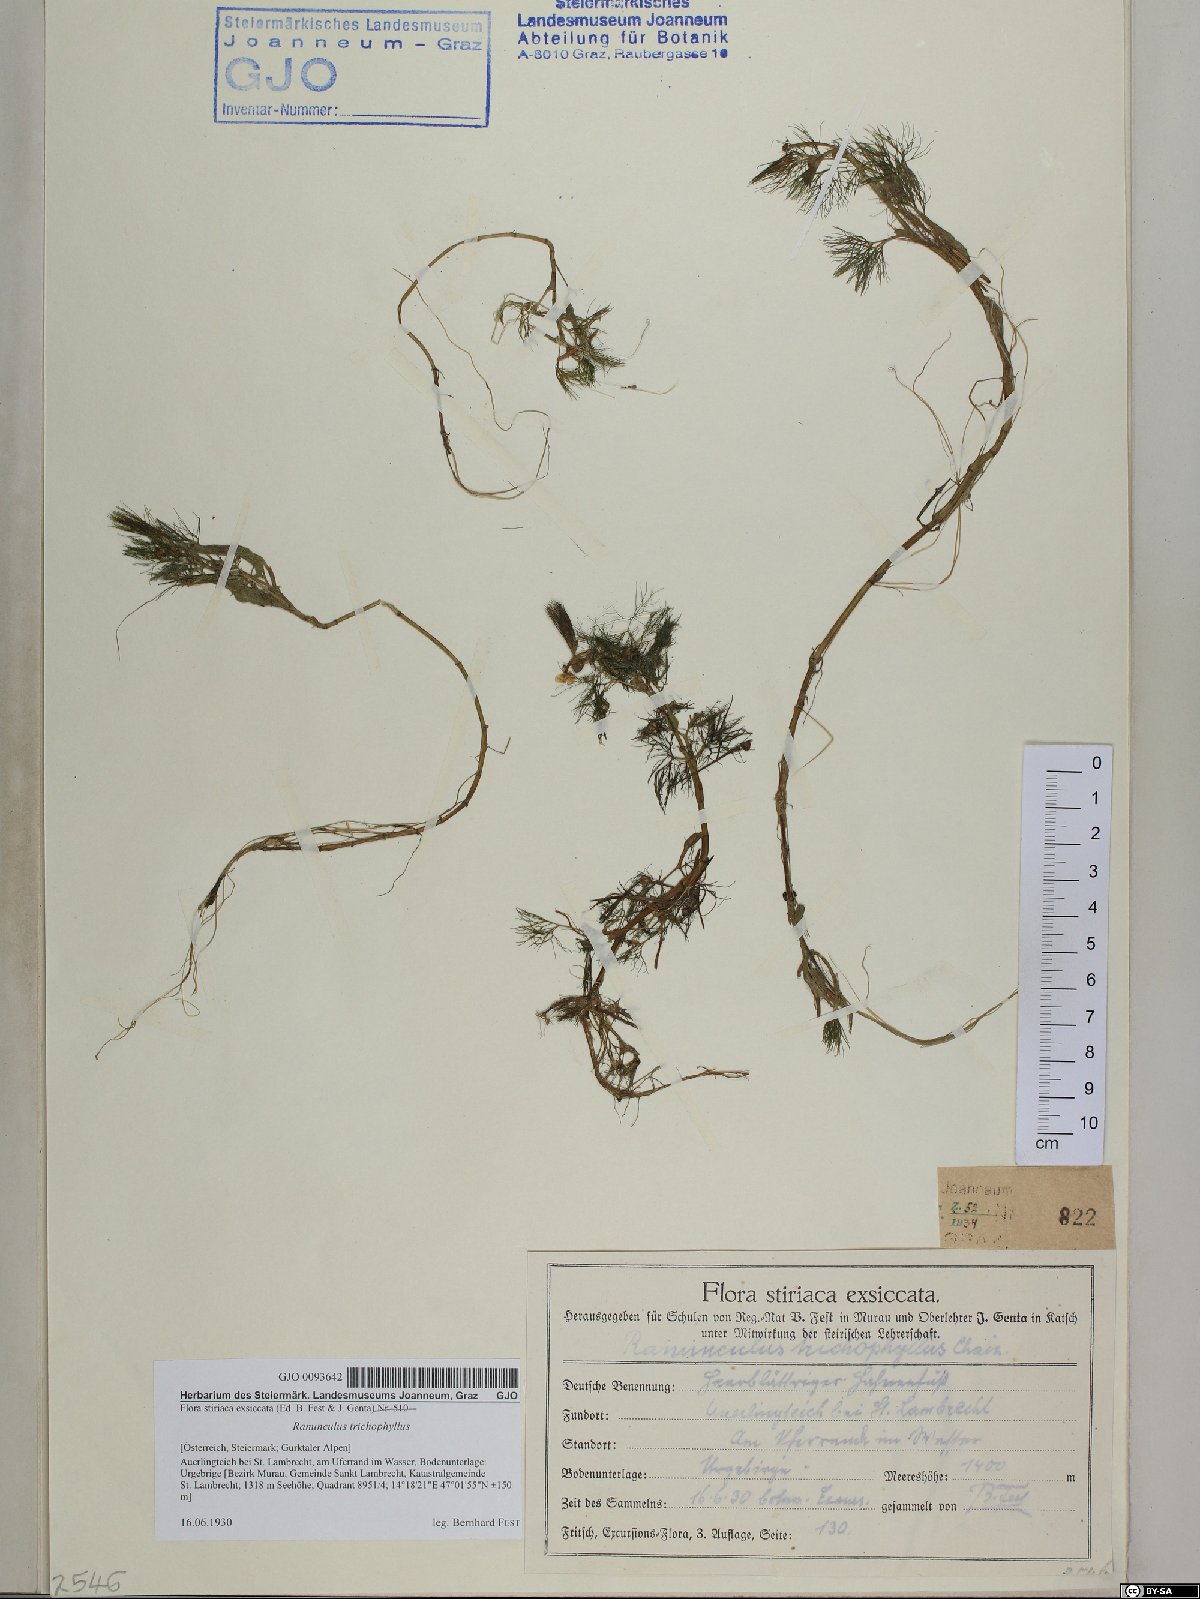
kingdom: Plantae
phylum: Tracheophyta
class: Magnoliopsida
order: Ranunculales
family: Ranunculaceae
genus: Ranunculus
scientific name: Ranunculus trichophyllus
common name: Thread-leaved water-crowfoot
